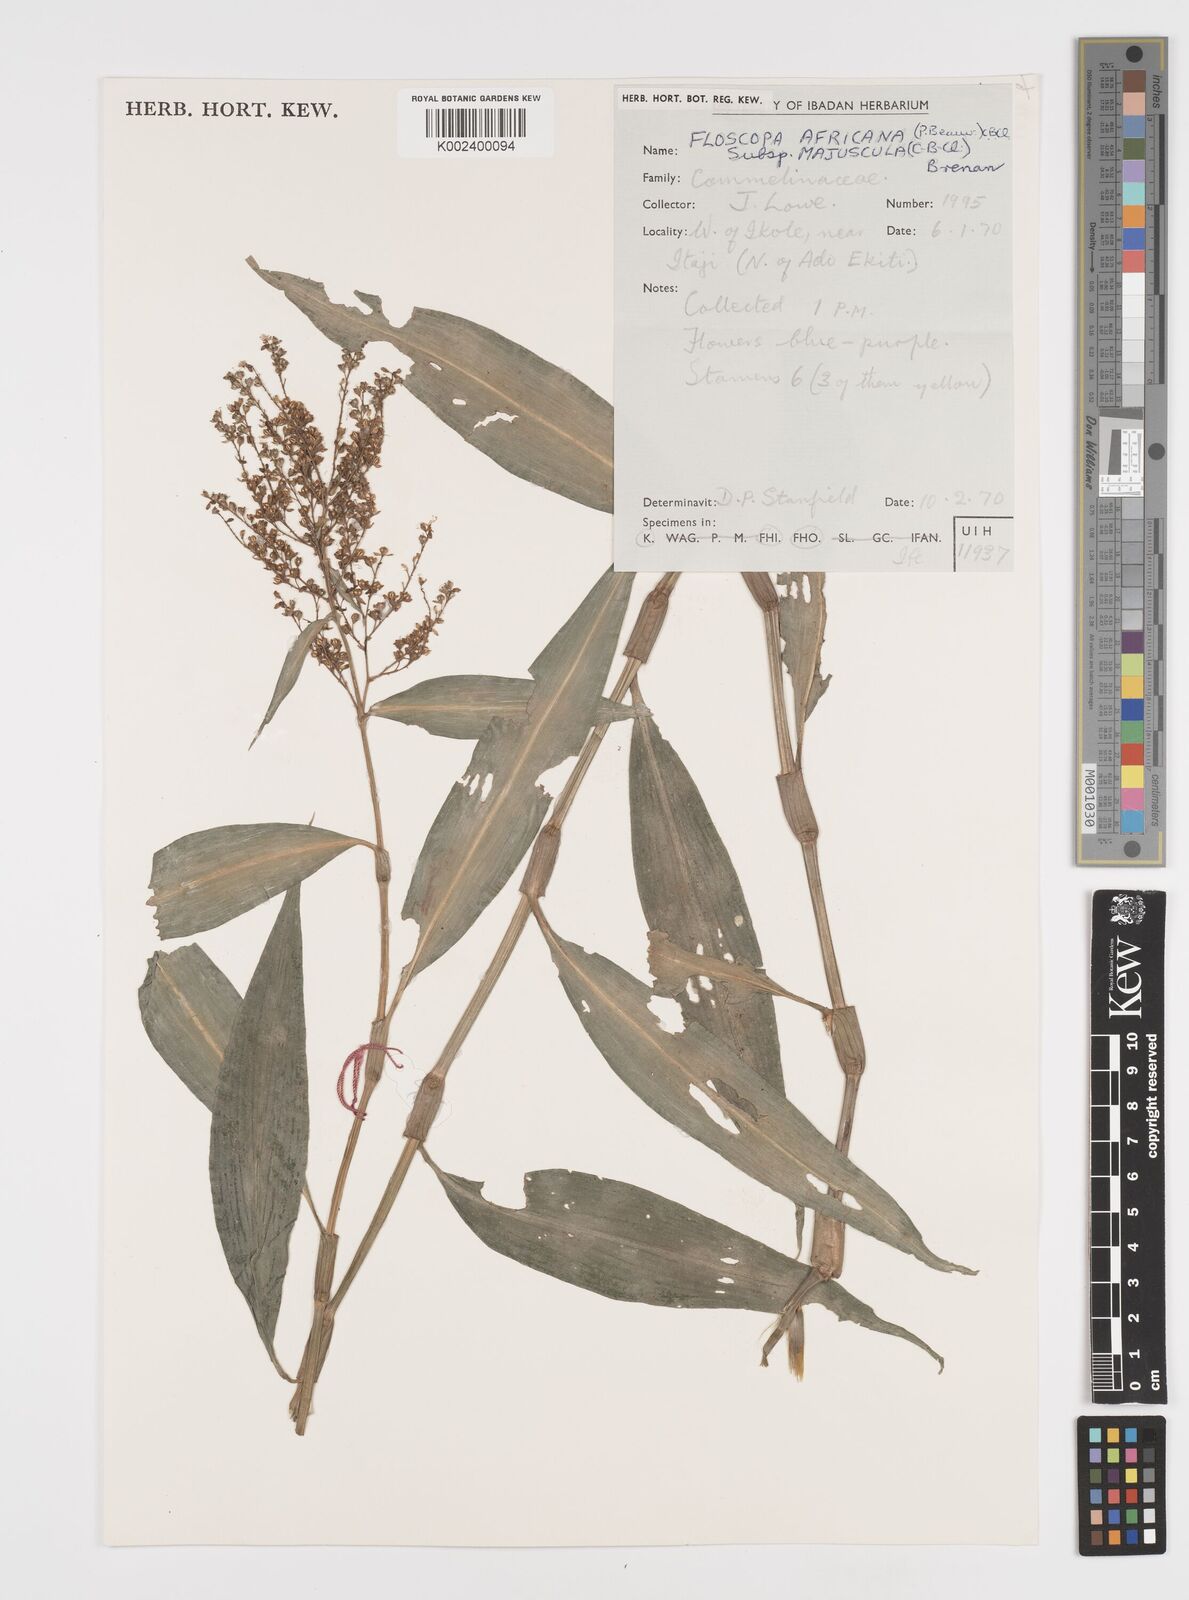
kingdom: Plantae
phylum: Tracheophyta
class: Liliopsida
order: Commelinales
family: Commelinaceae
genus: Floscopa
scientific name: Floscopa africana
